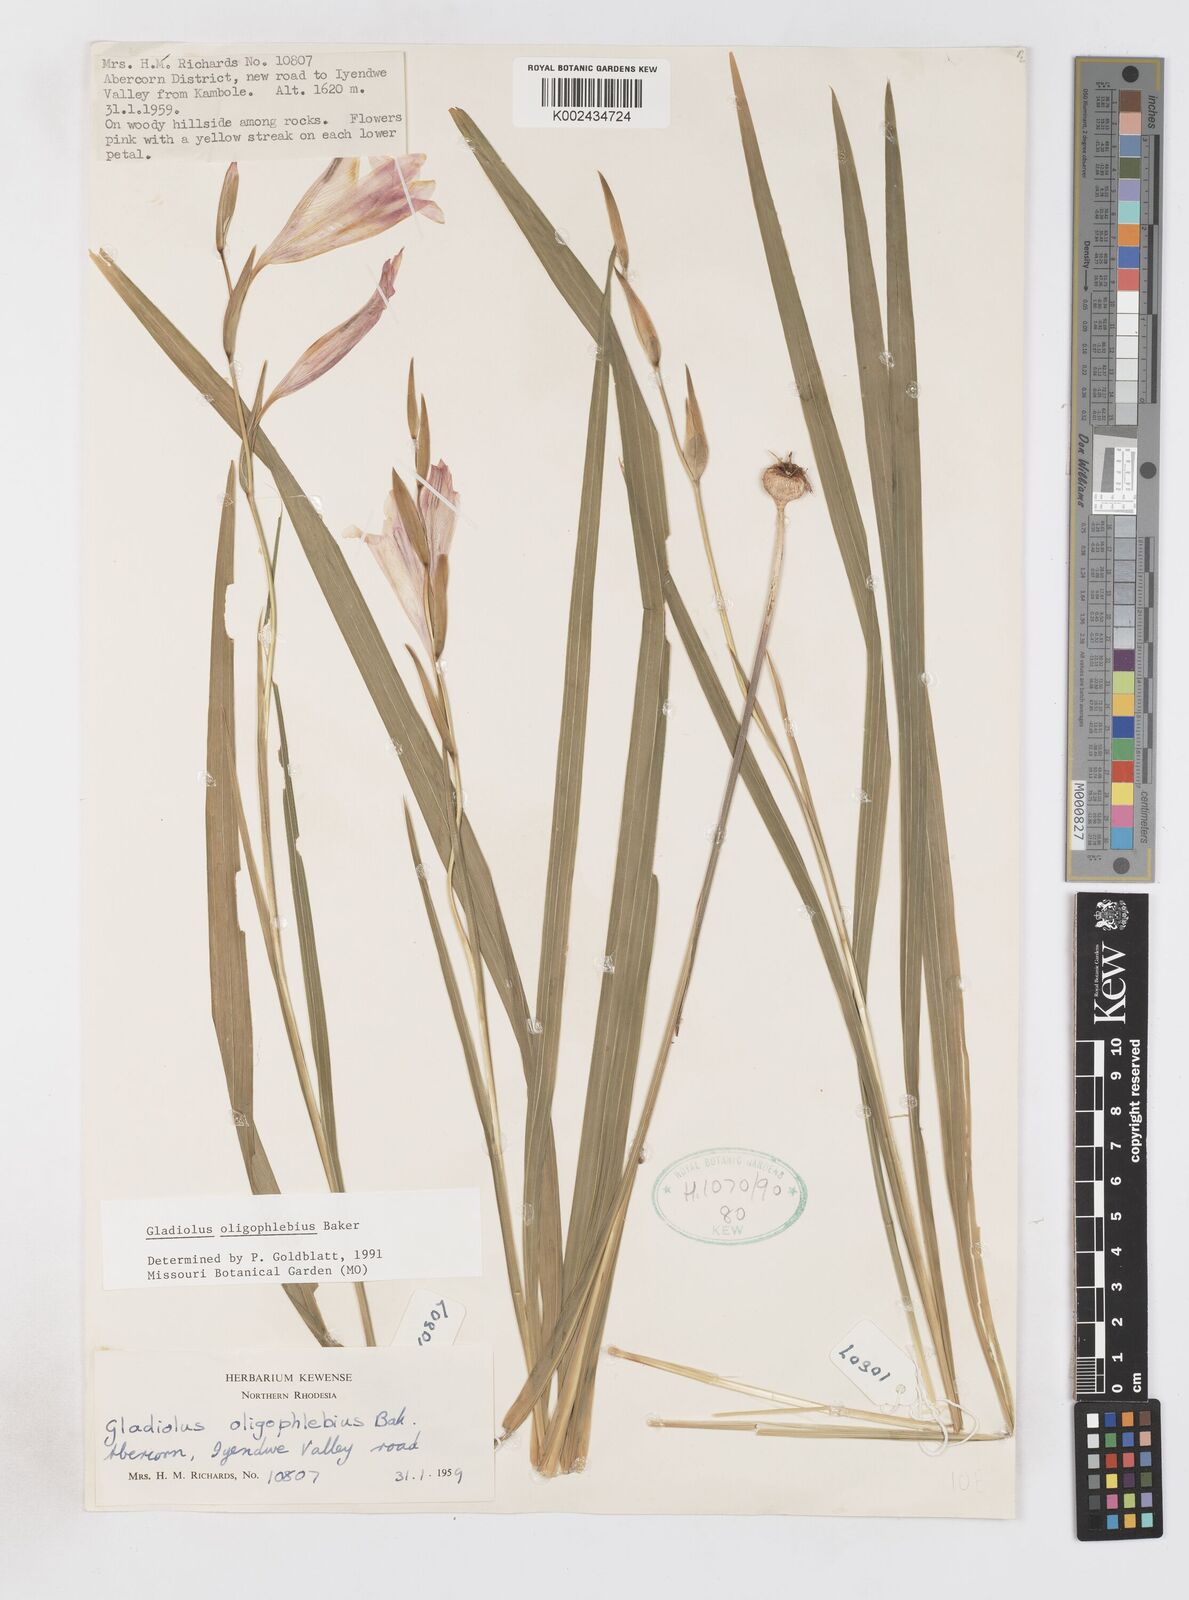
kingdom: Plantae
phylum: Tracheophyta
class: Liliopsida
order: Asparagales
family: Iridaceae
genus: Gladiolus
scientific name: Gladiolus oligophlebius
